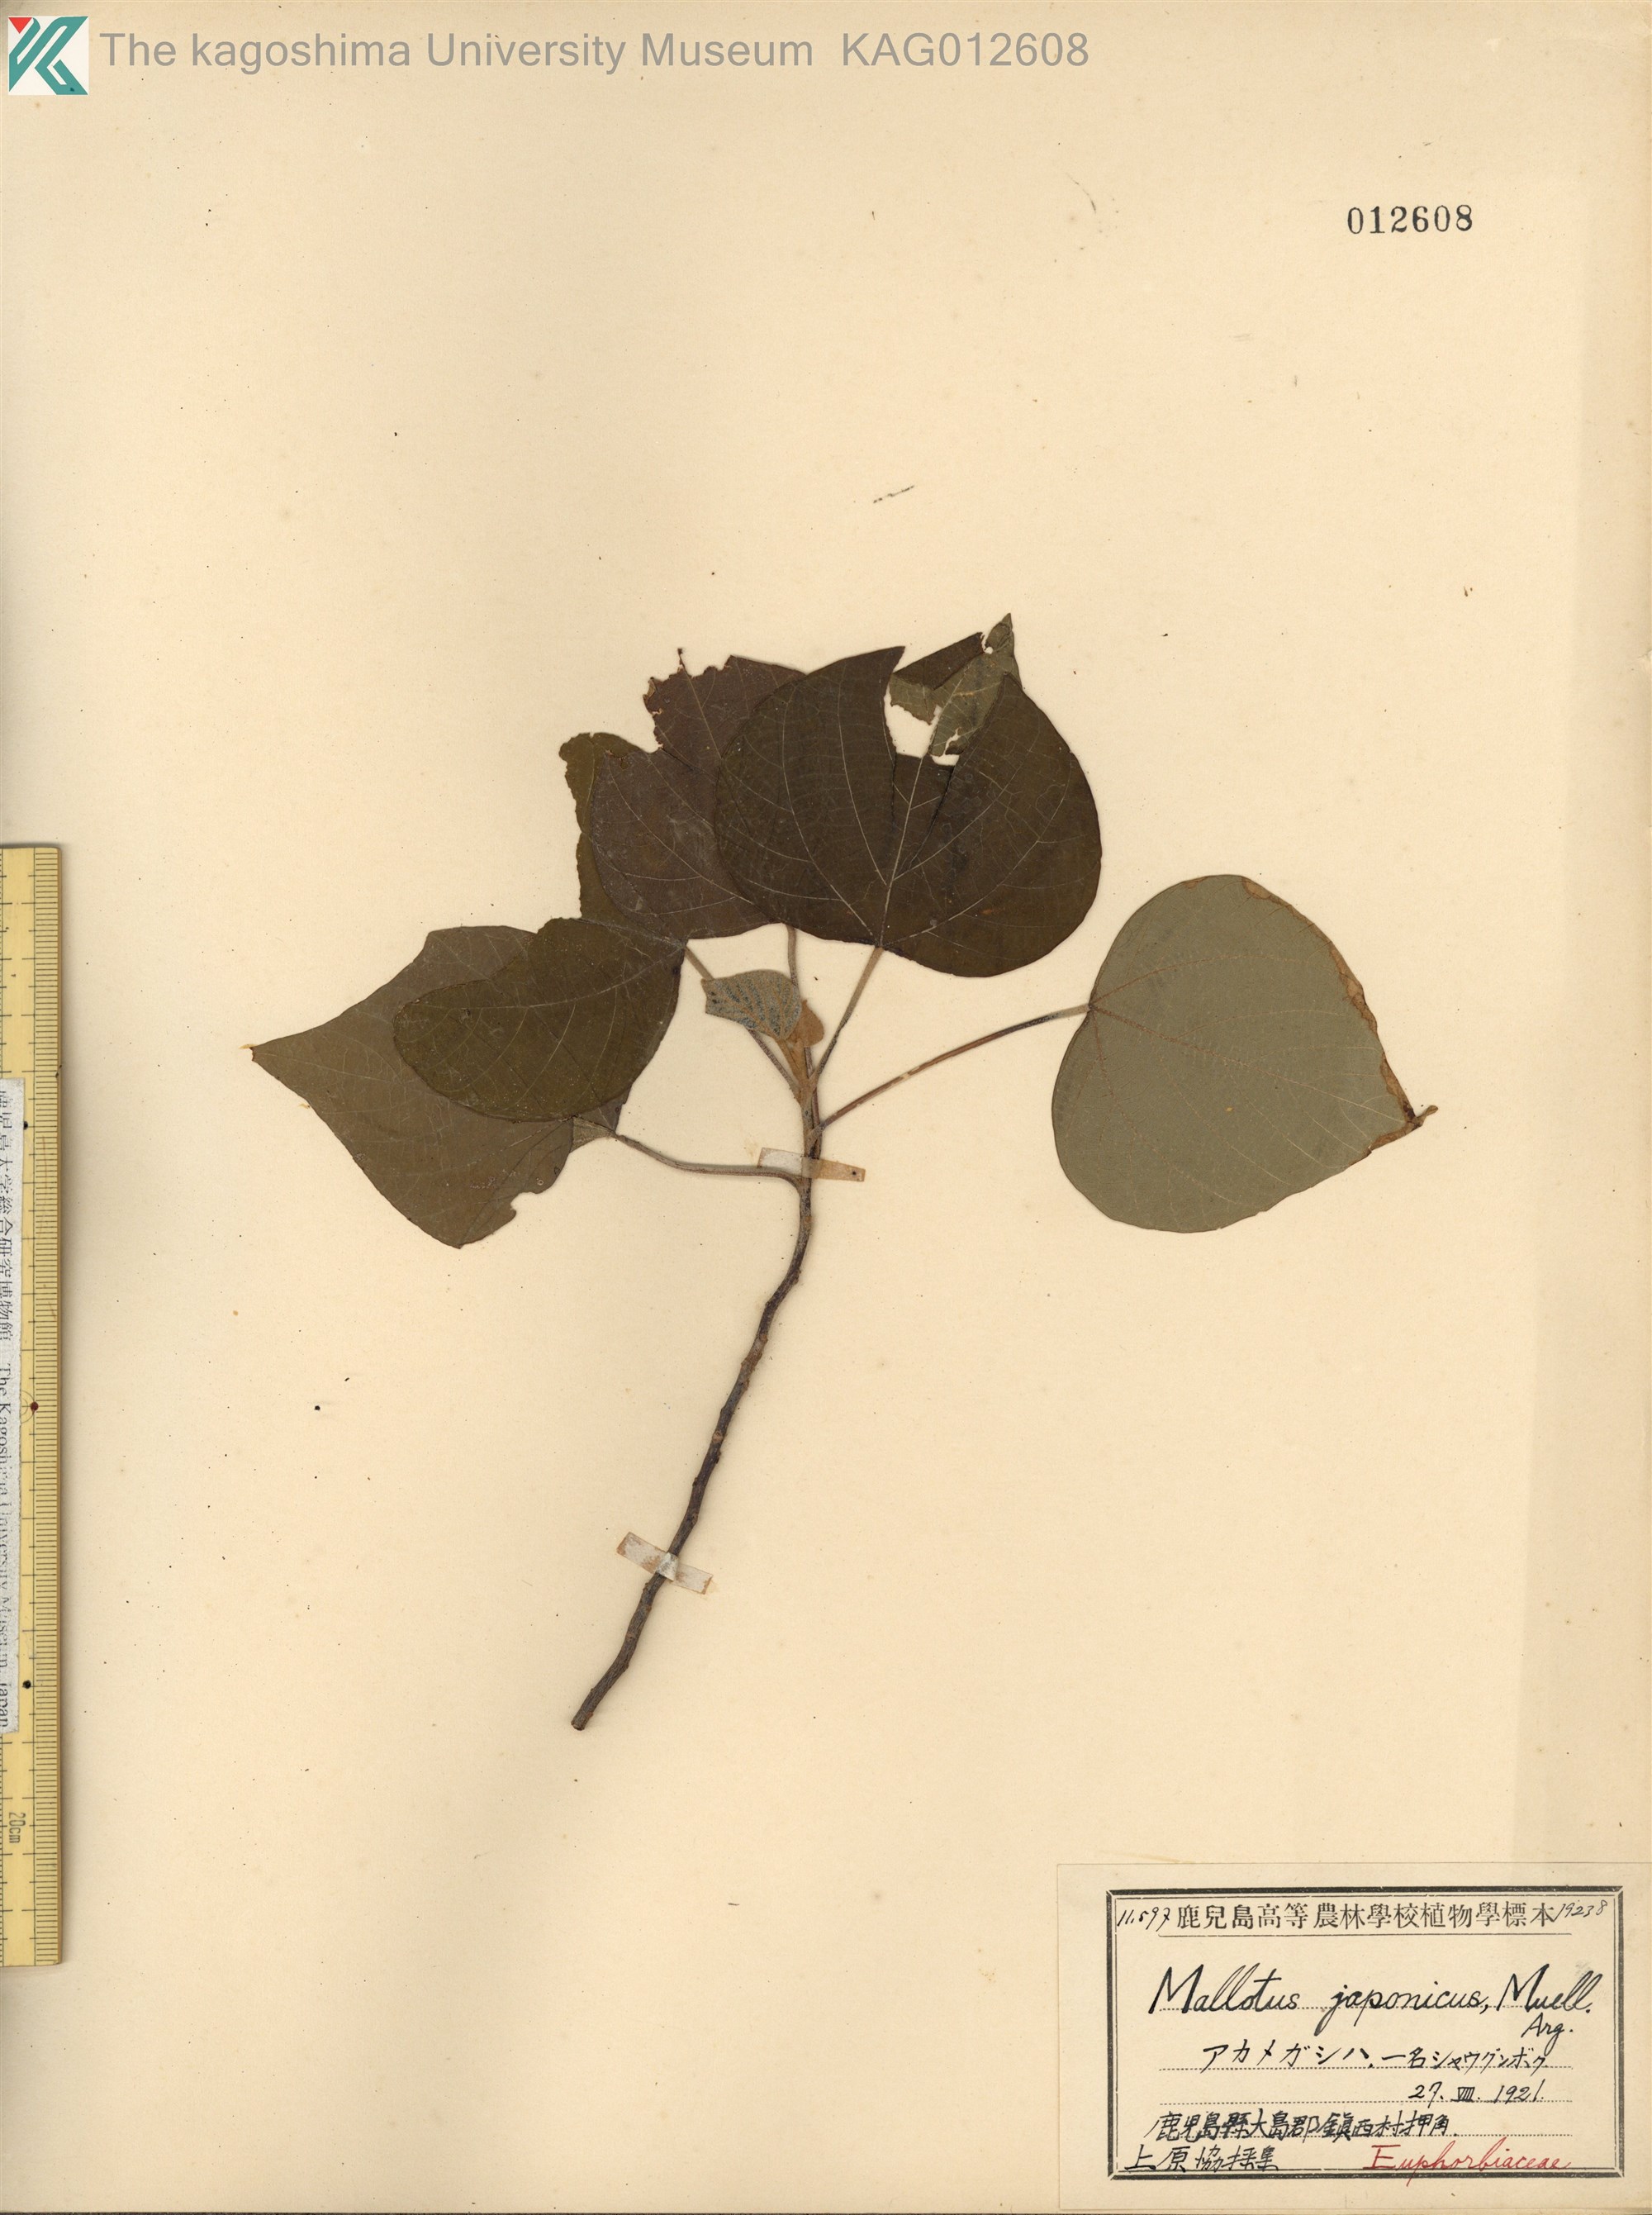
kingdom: Plantae
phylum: Tracheophyta
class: Magnoliopsida
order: Malpighiales
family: Euphorbiaceae
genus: Mallotus
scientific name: Mallotus japonicus
